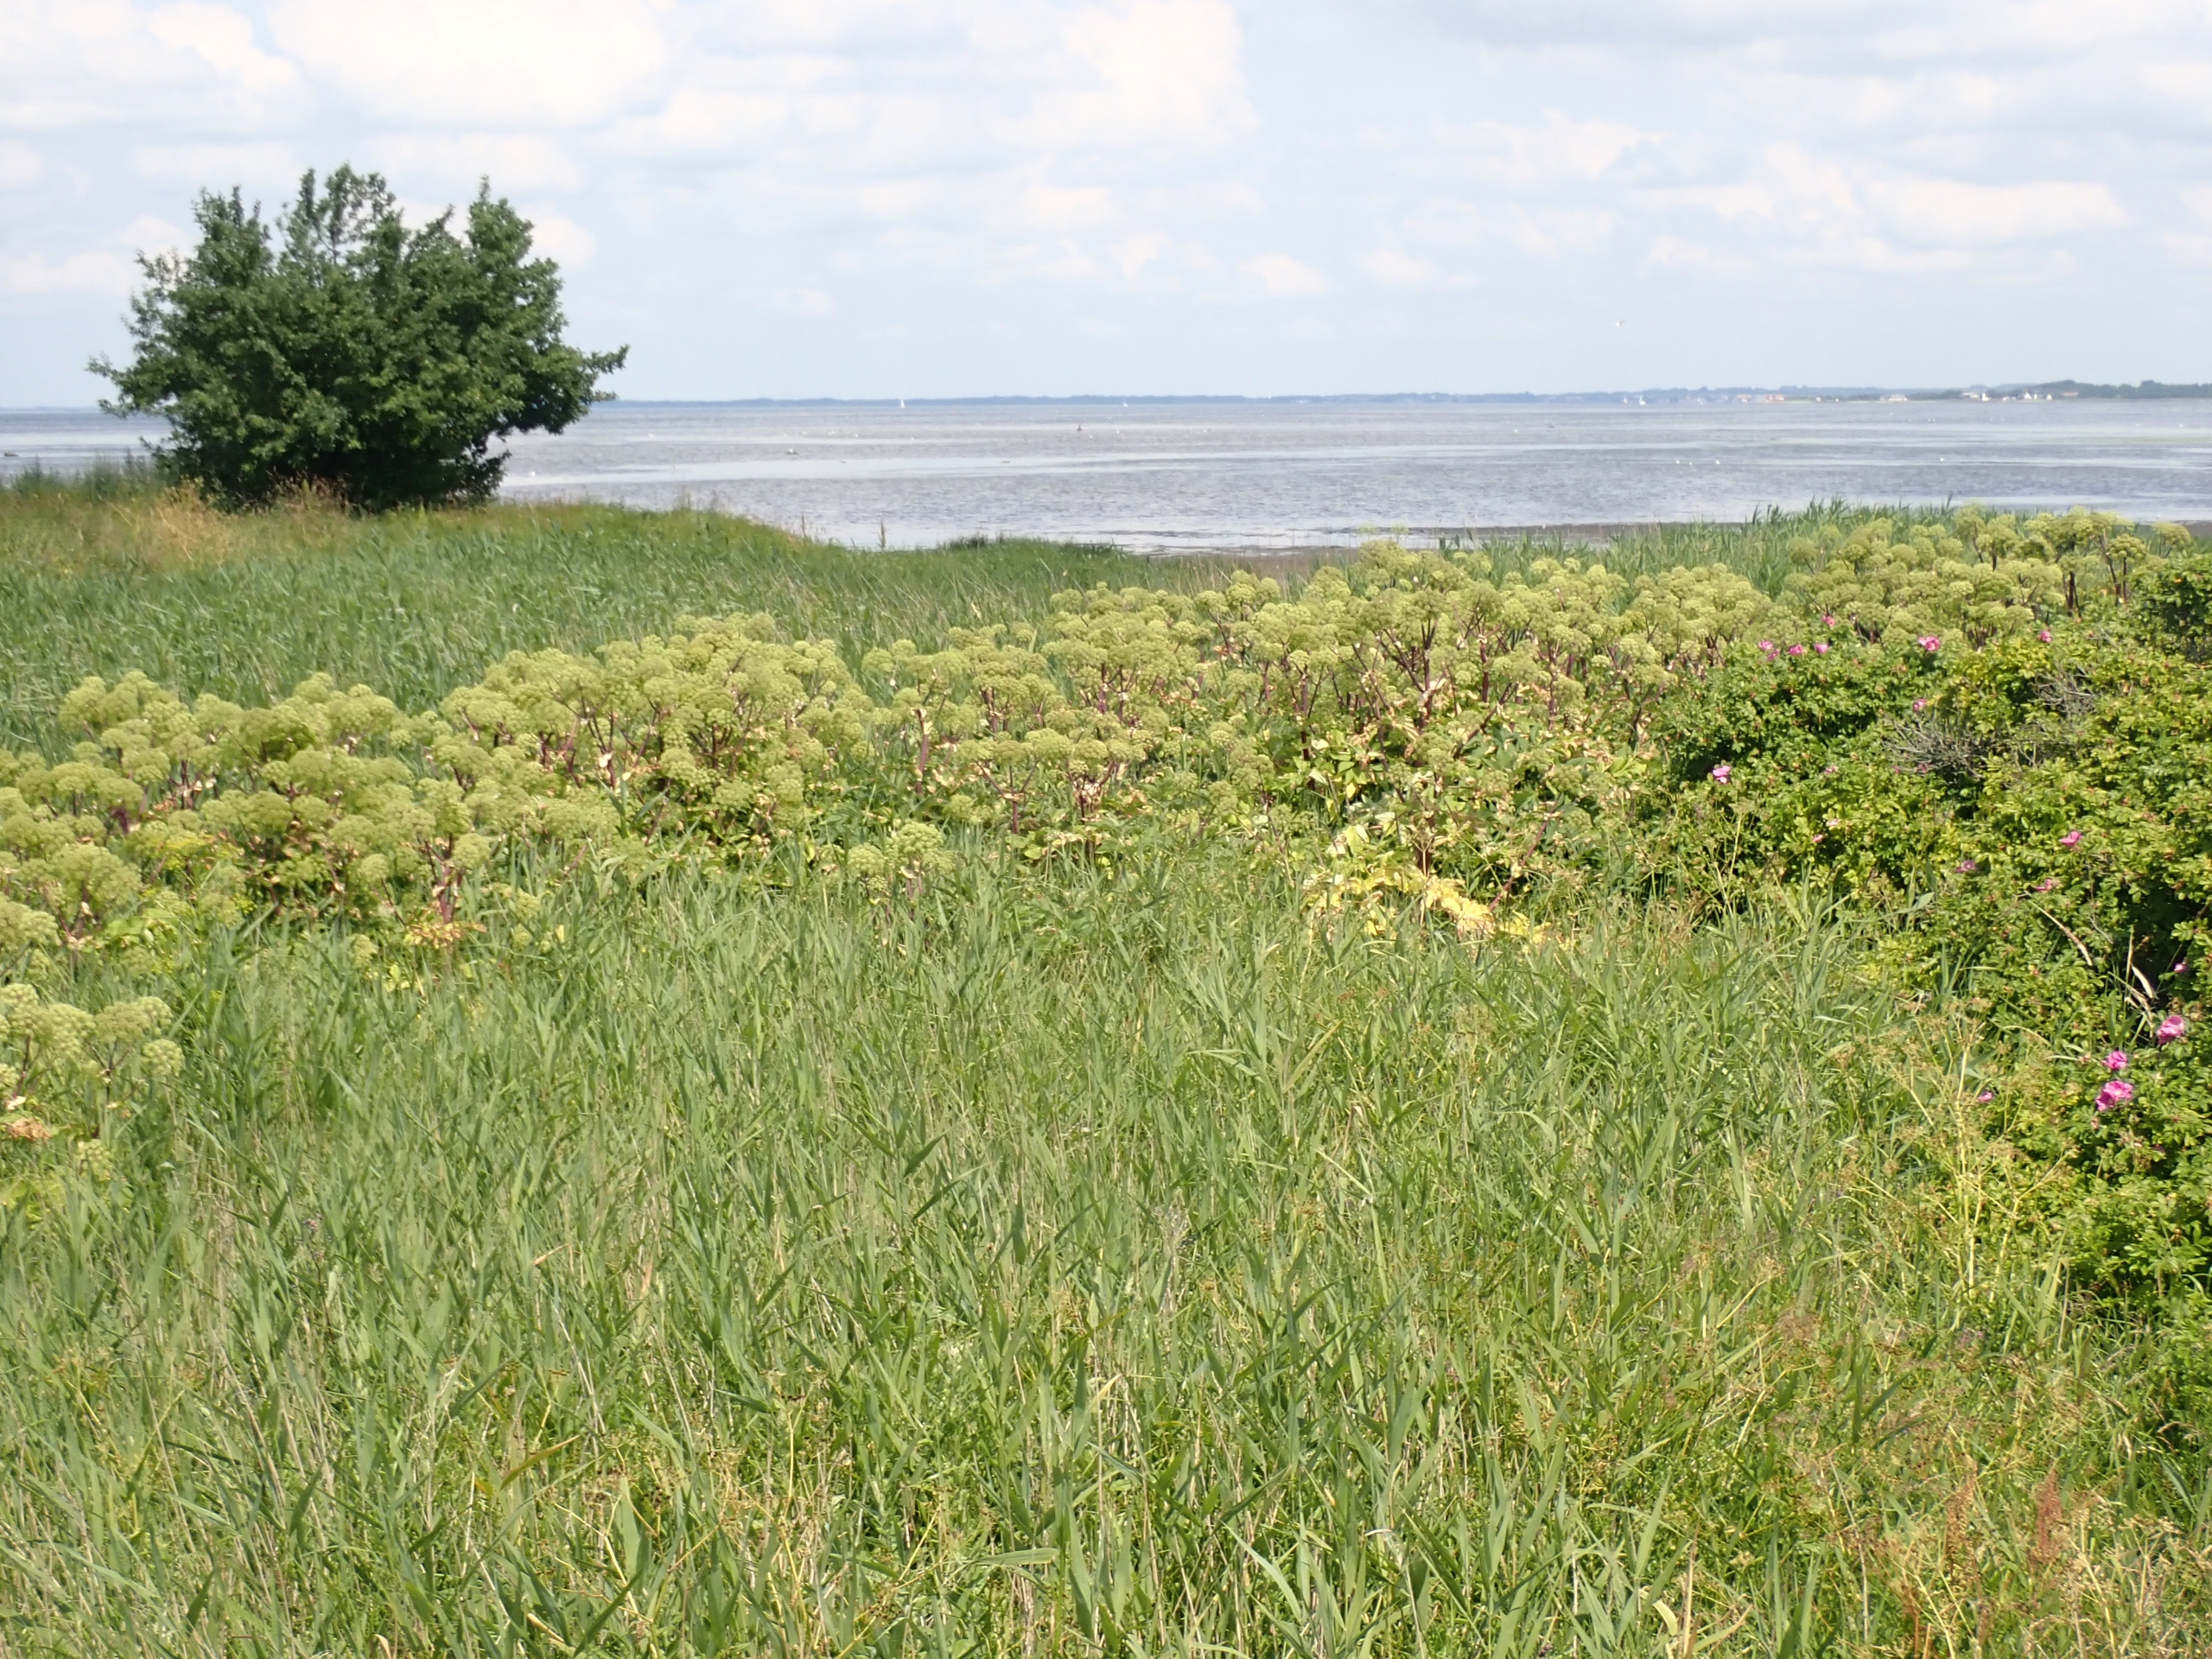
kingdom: Plantae
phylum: Tracheophyta
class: Magnoliopsida
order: Apiales
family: Apiaceae
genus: Angelica
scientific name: Angelica archangelica
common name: Strand-kvan
